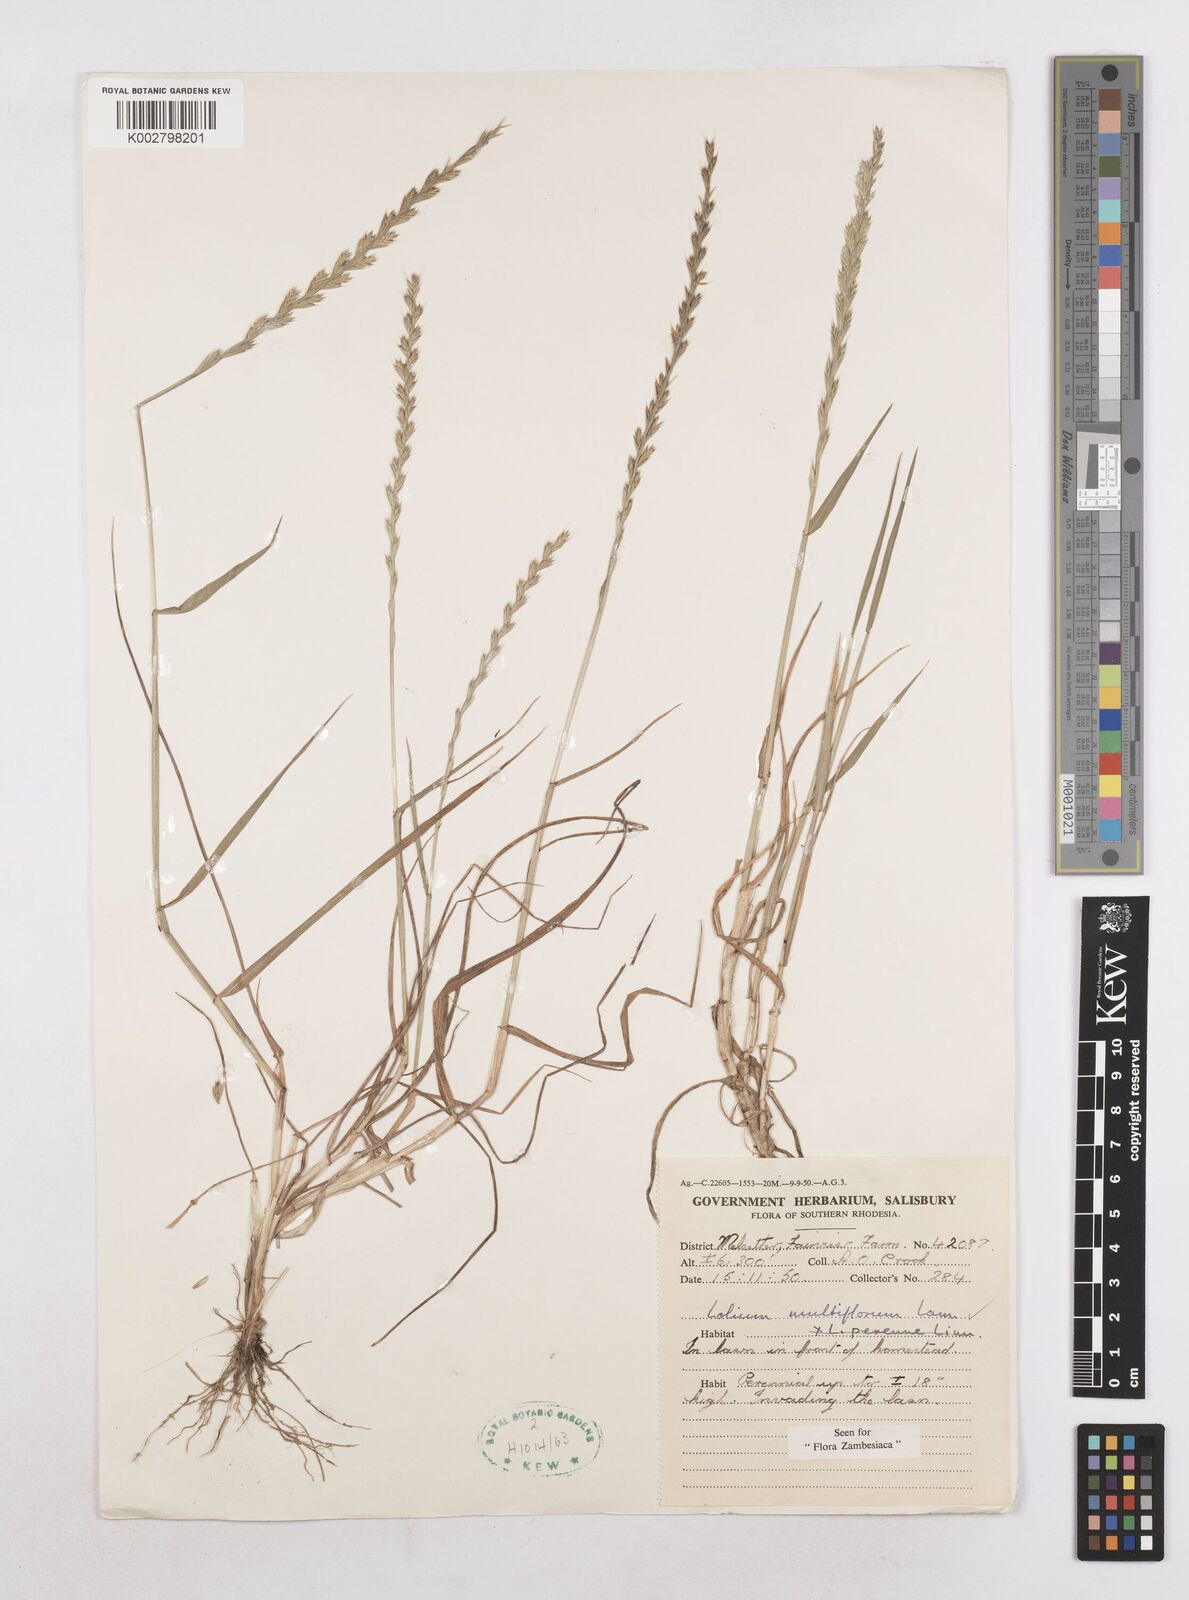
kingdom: Plantae
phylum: Tracheophyta
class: Liliopsida
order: Poales
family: Poaceae
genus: Lolium
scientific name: Lolium multiflorum
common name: Annual ryegrass
